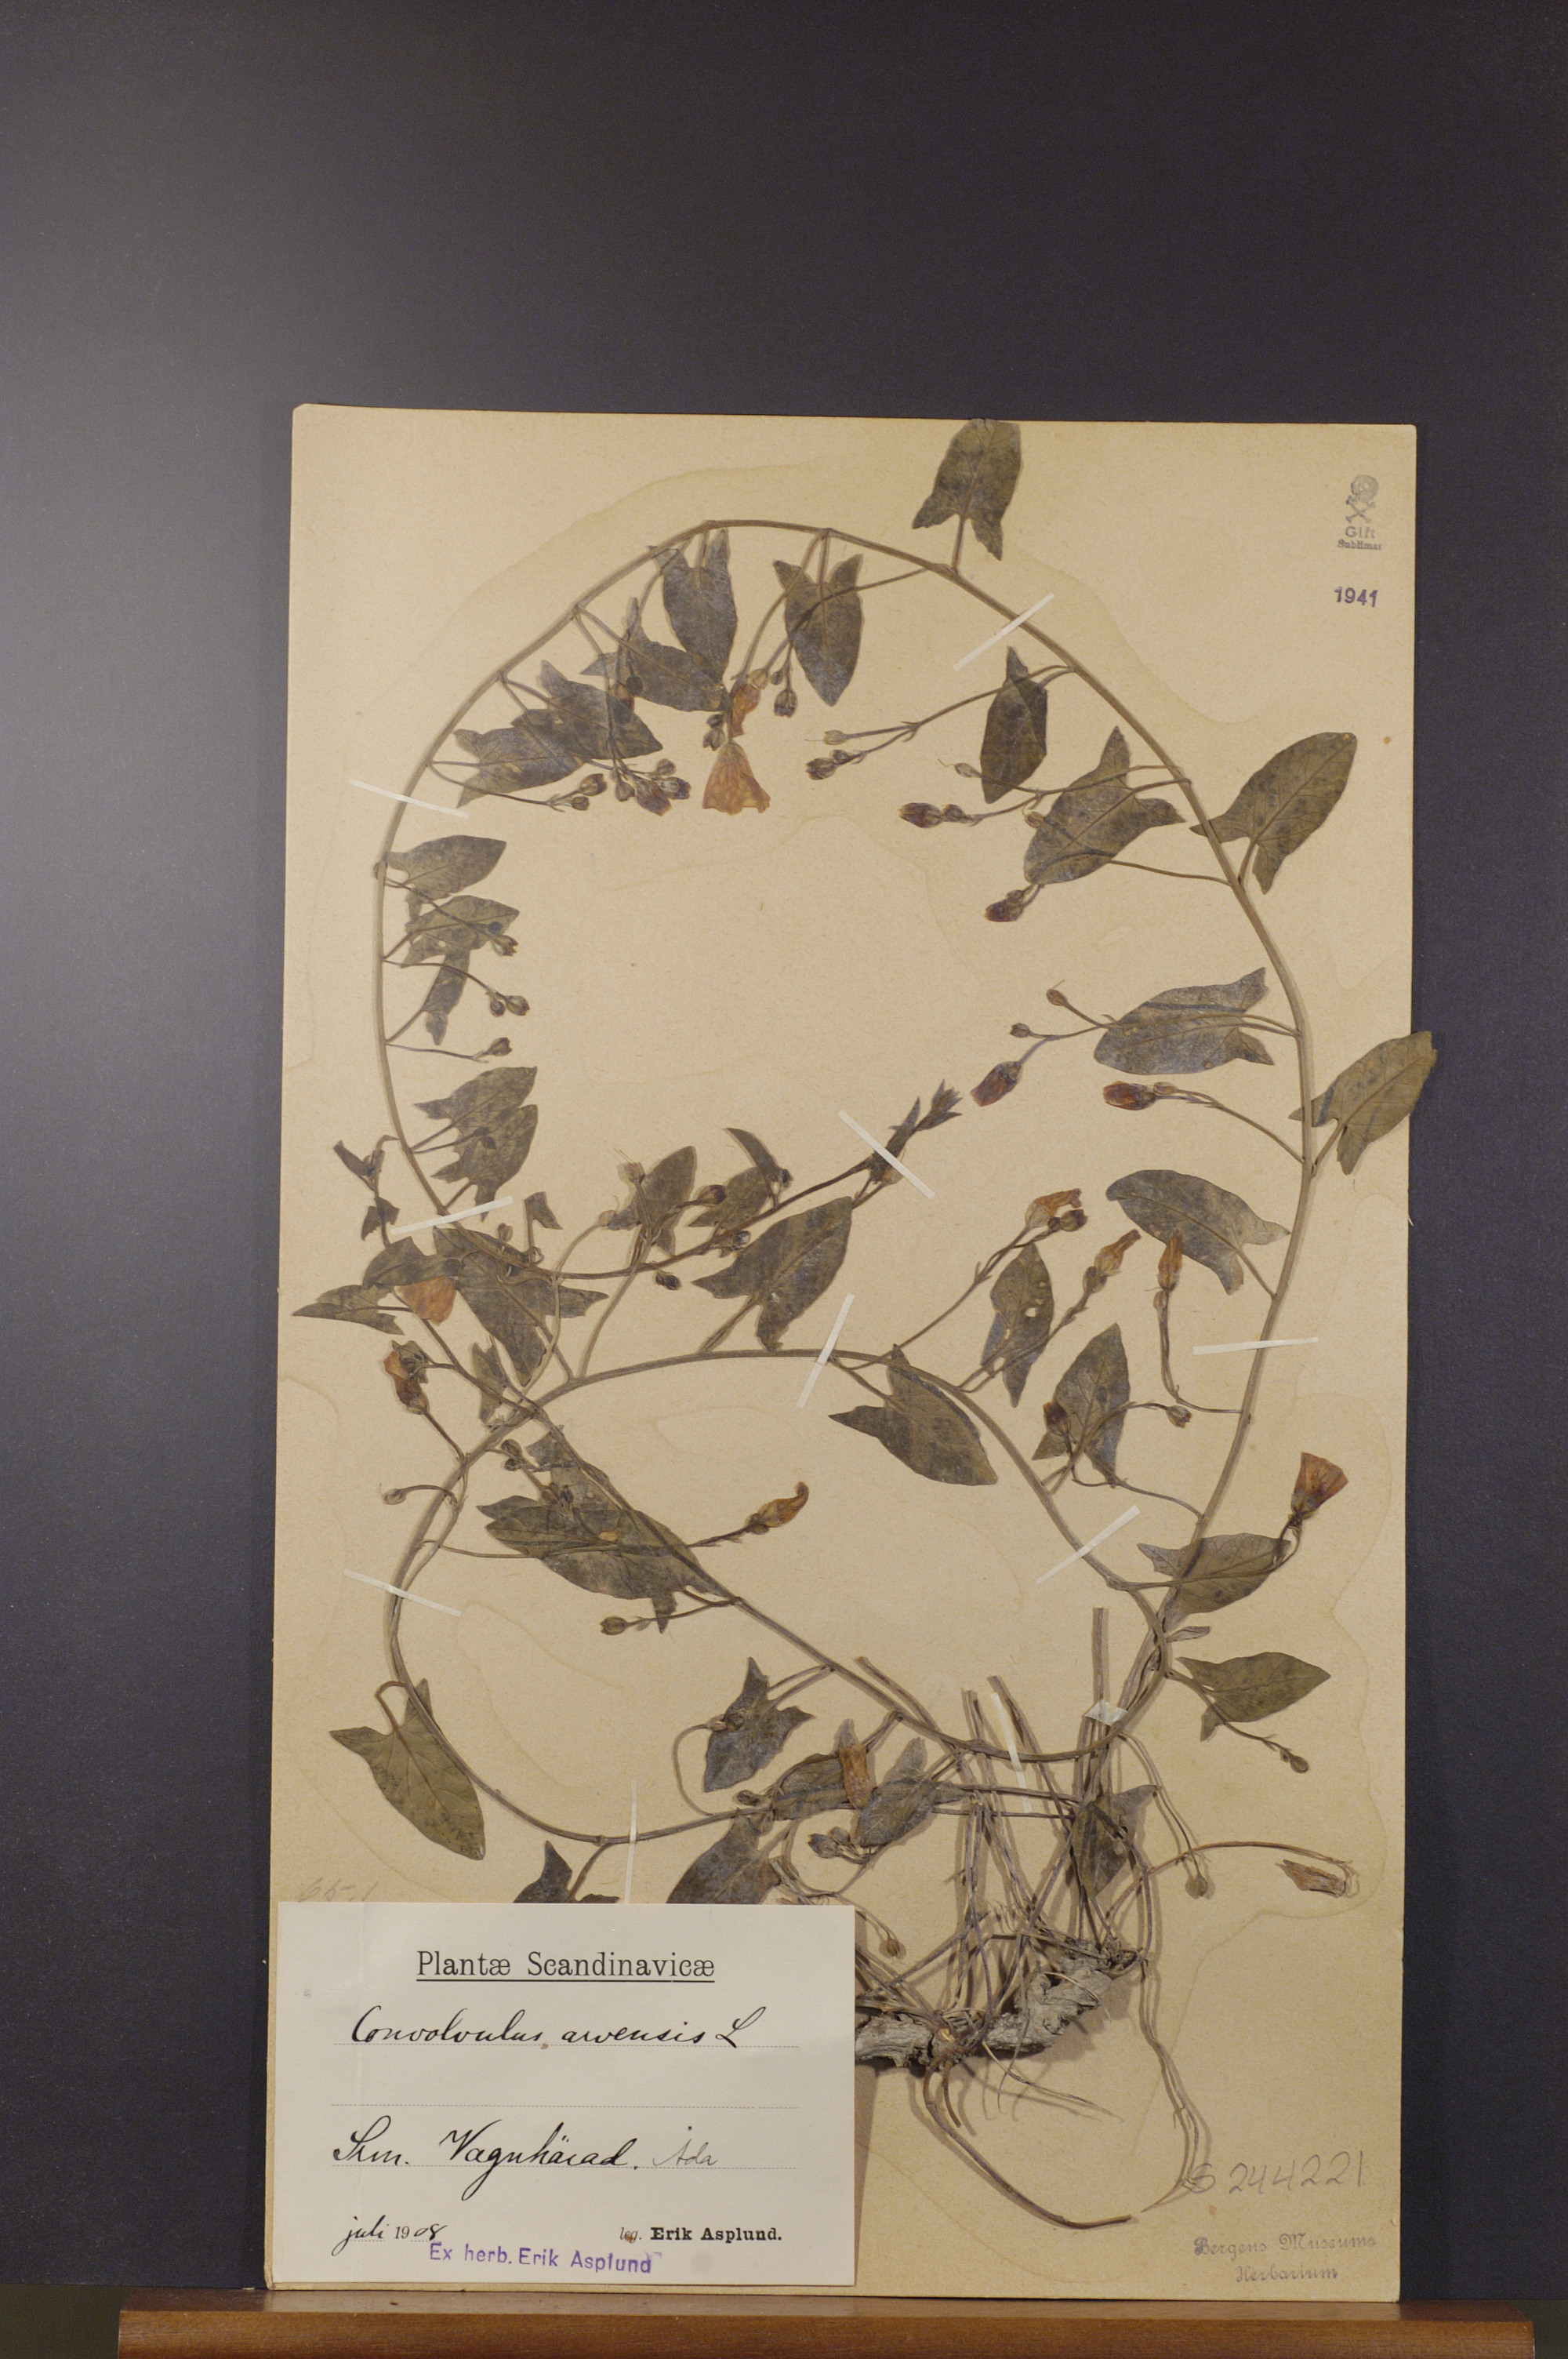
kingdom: Plantae
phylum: Tracheophyta
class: Magnoliopsida
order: Solanales
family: Convolvulaceae
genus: Convolvulus
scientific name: Convolvulus arvensis
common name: Field bindweed
